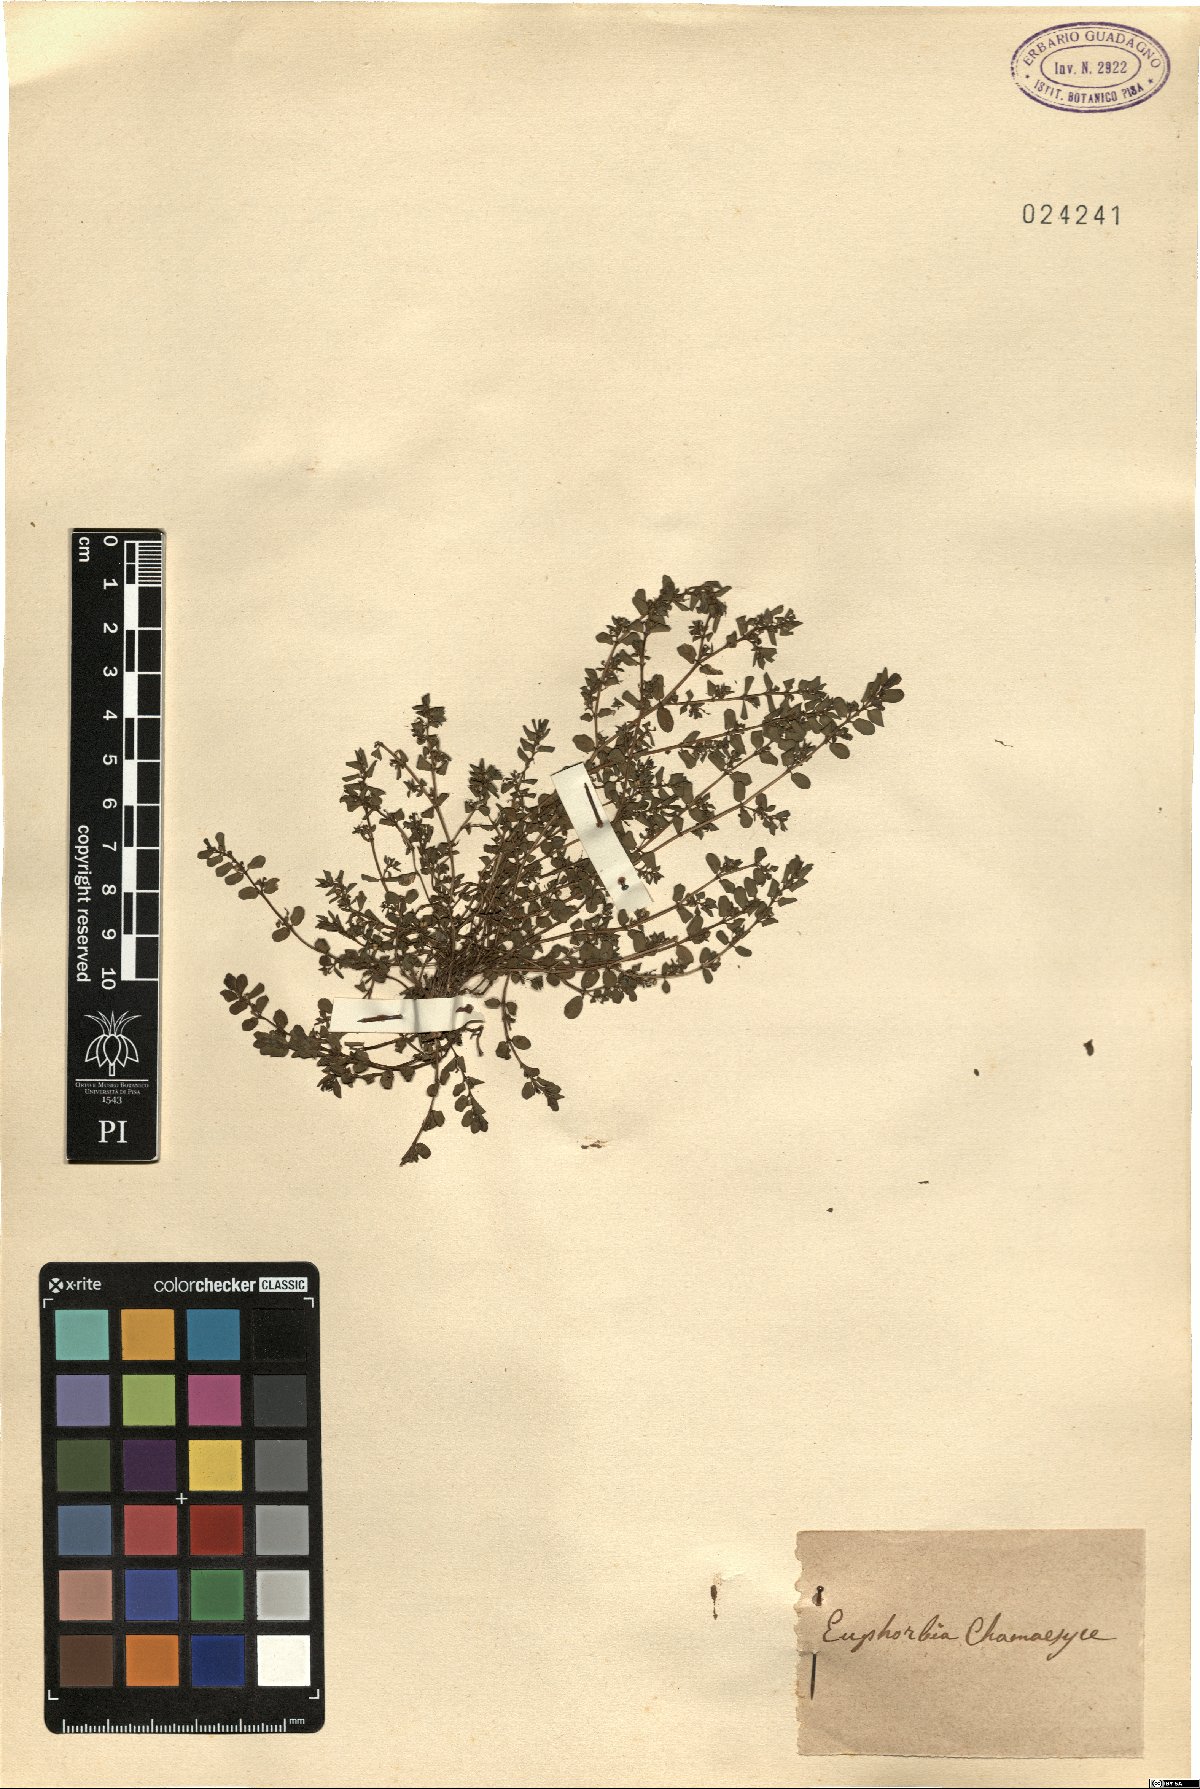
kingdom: Plantae
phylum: Tracheophyta
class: Magnoliopsida
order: Malpighiales
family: Euphorbiaceae
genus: Euphorbia
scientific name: Euphorbia chamaesyce
